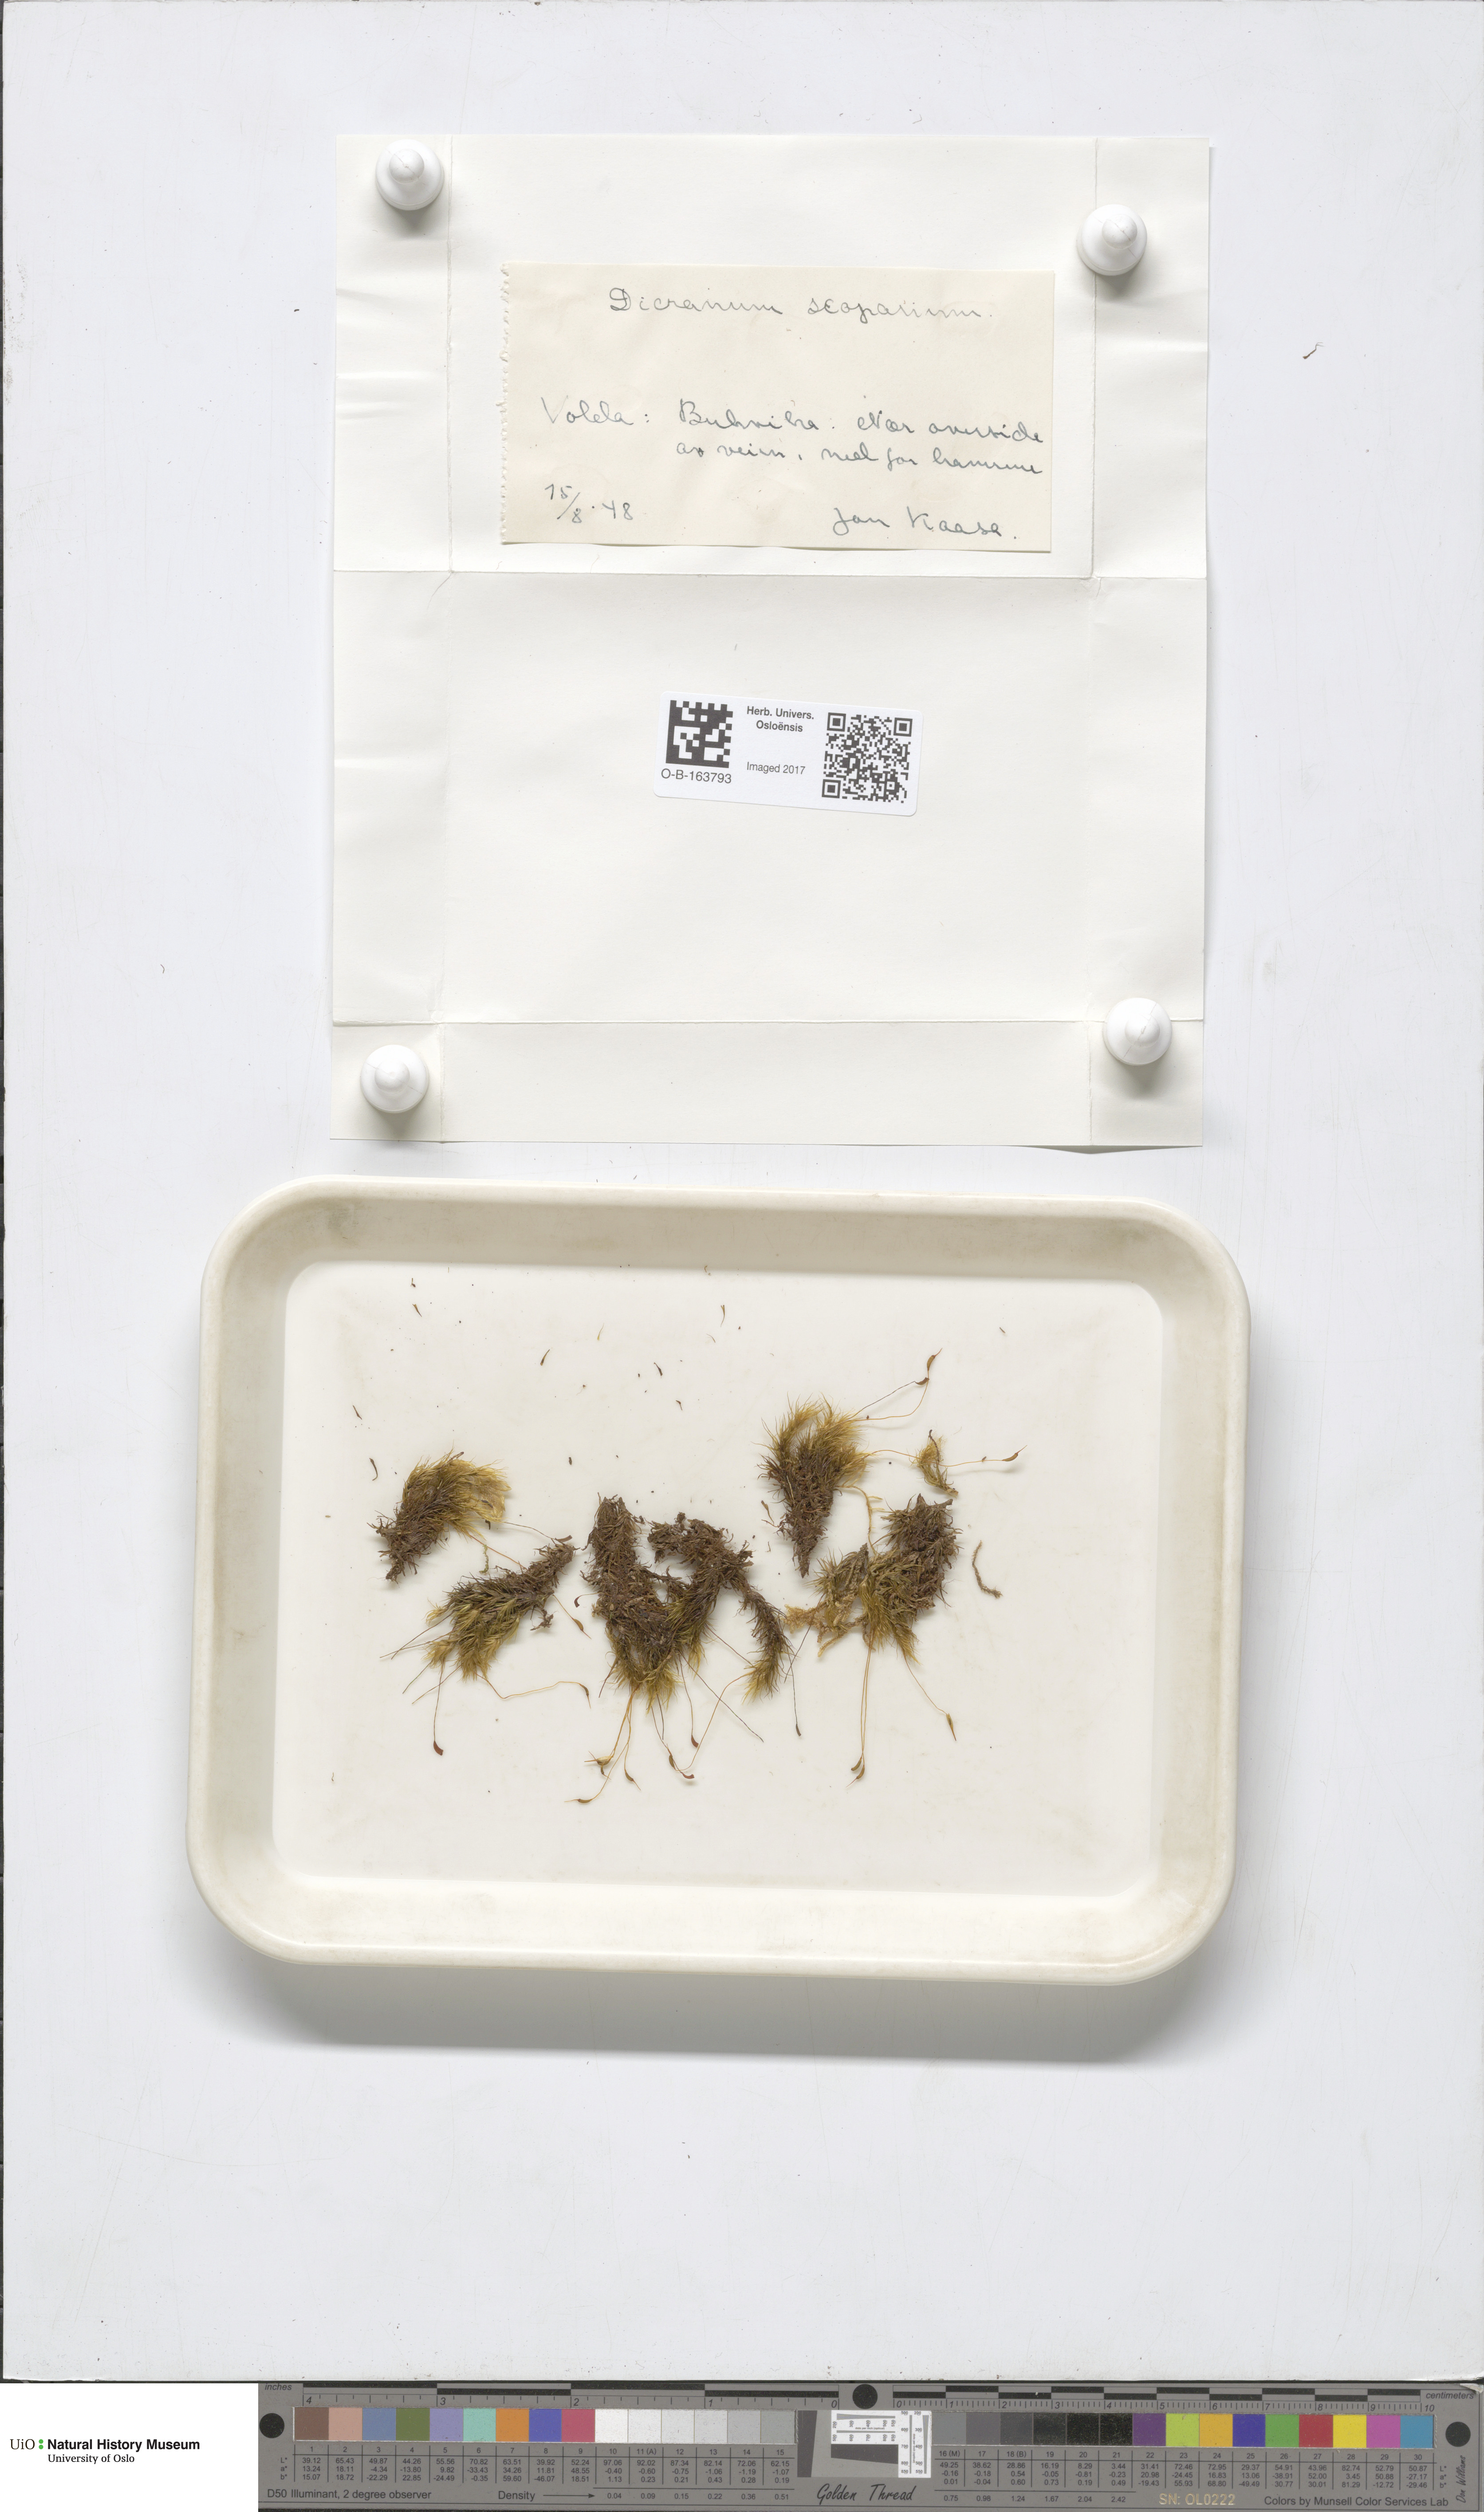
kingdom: Plantae
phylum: Bryophyta
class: Bryopsida
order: Dicranales
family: Dicranaceae
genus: Dicranum
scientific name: Dicranum scoparium
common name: Broom fork-moss
